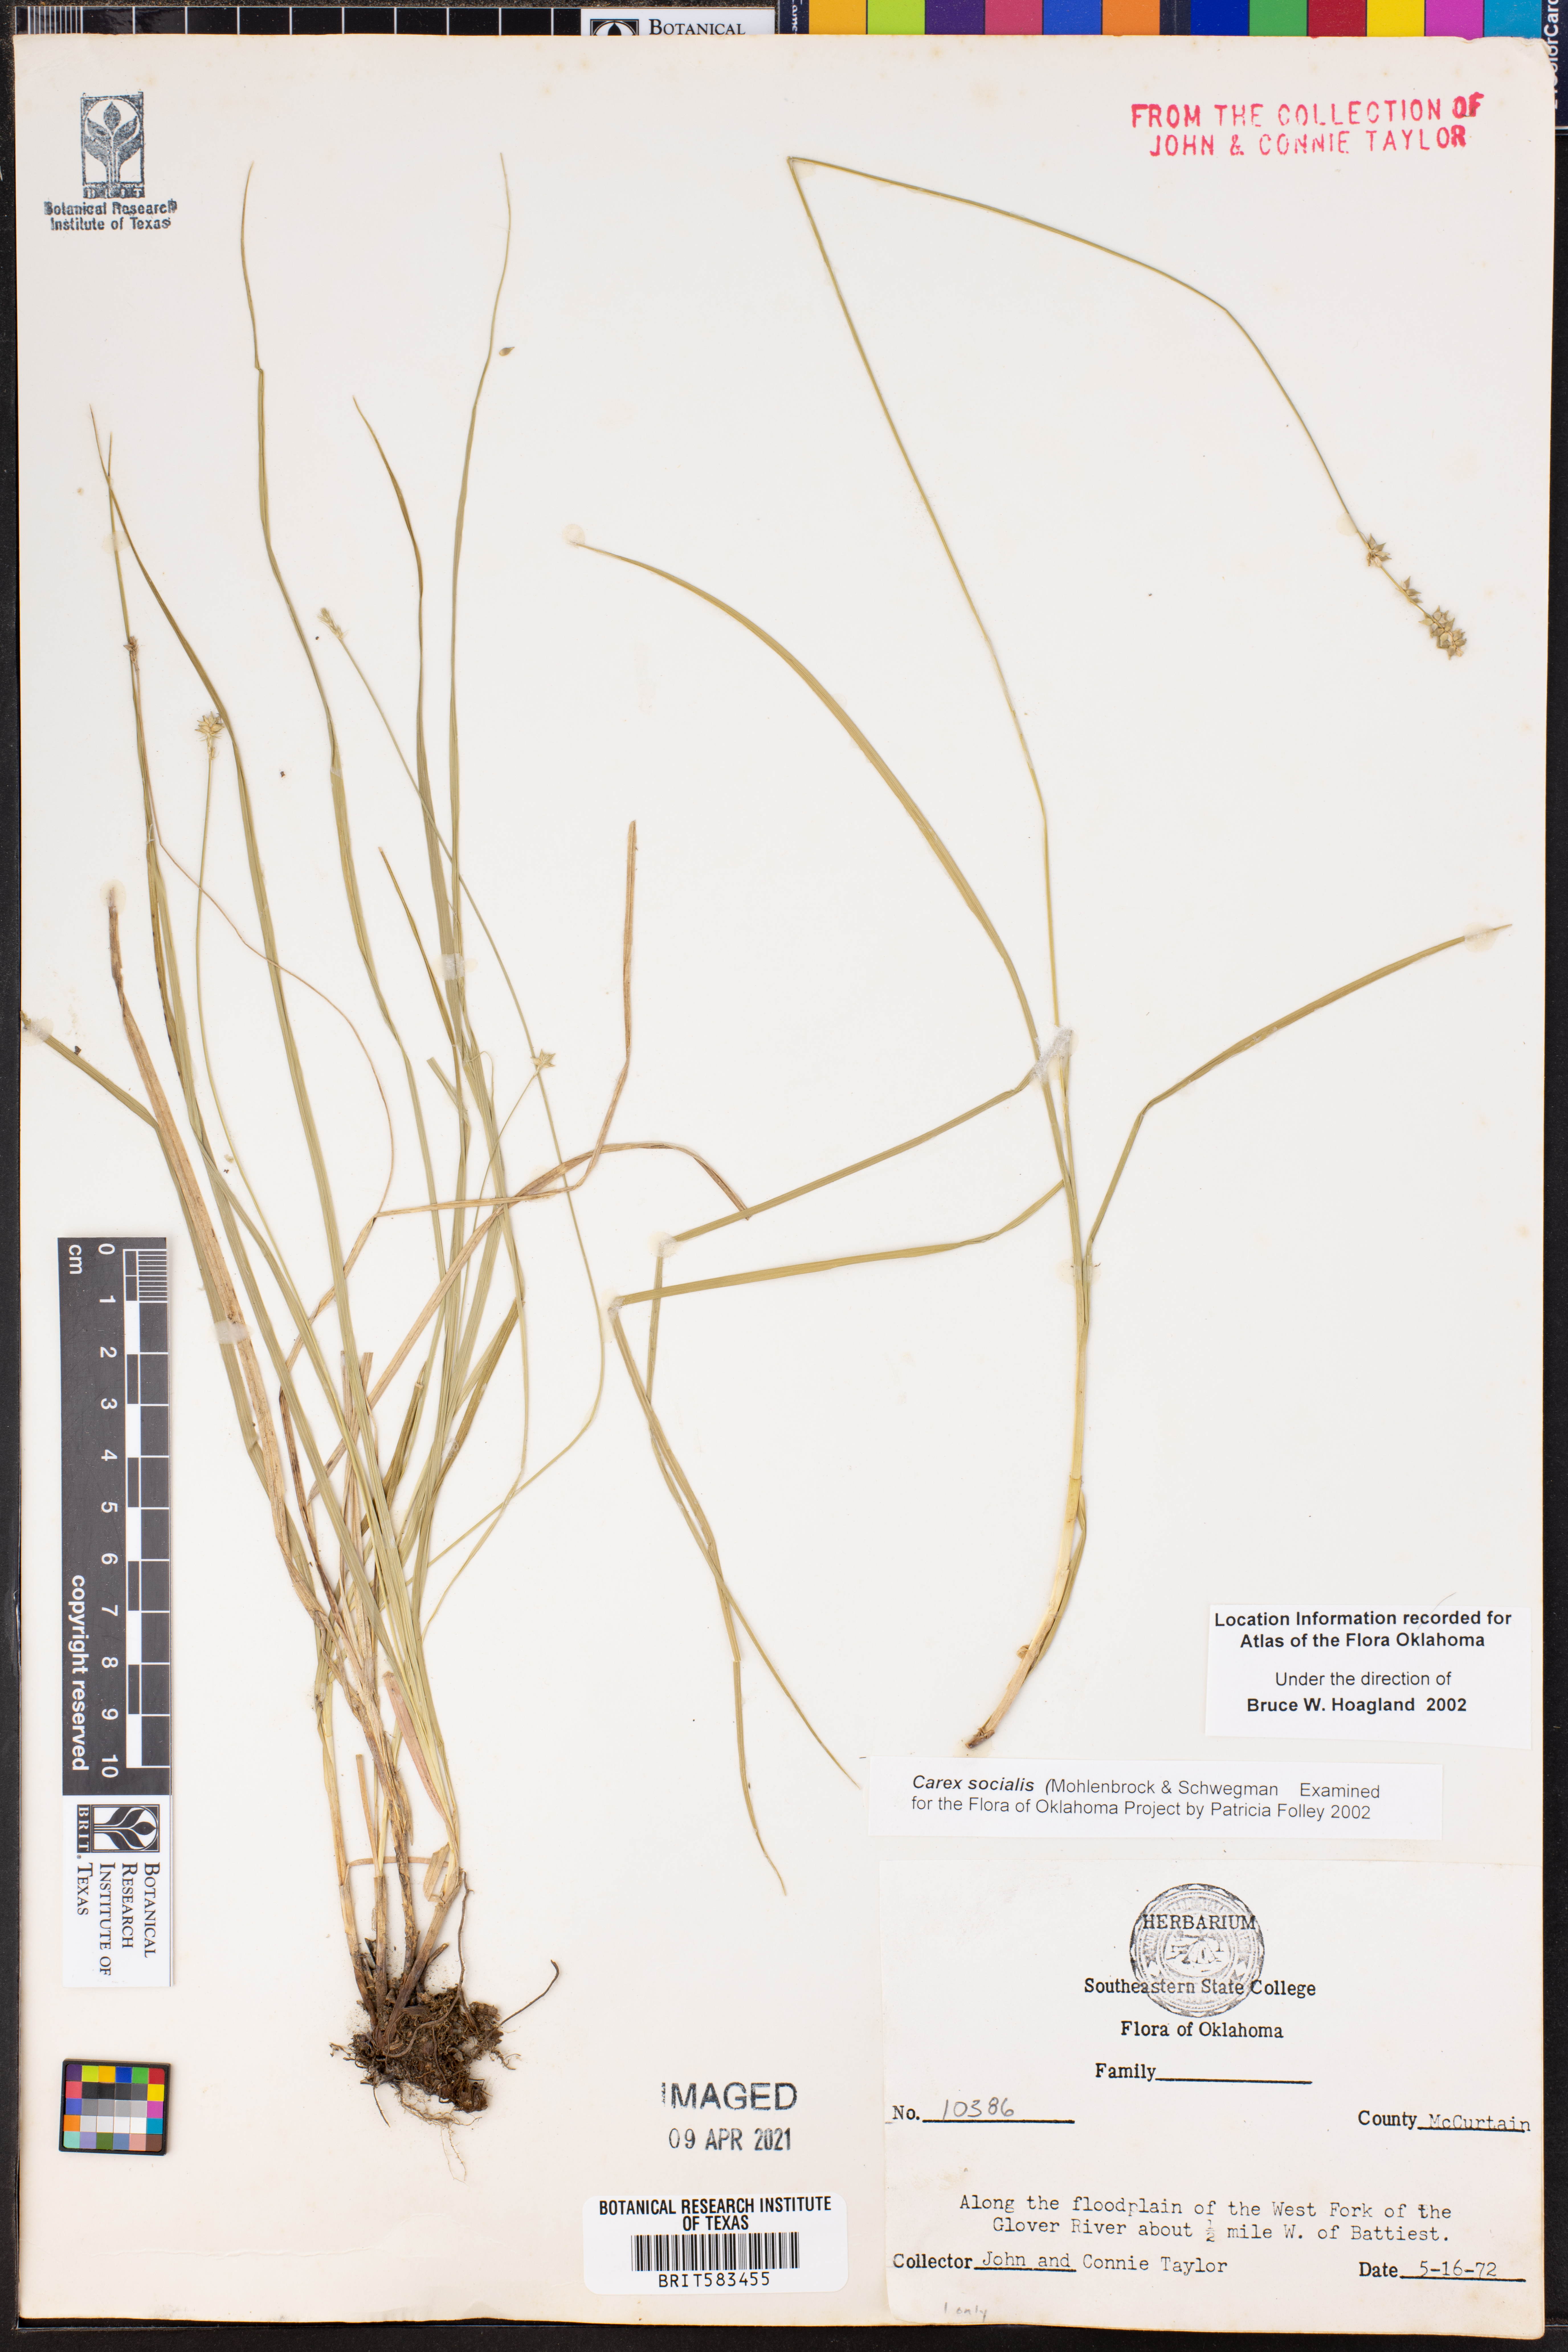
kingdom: Plantae
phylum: Tracheophyta
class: Liliopsida
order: Poales
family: Cyperaceae
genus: Carex
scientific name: Carex socialis
